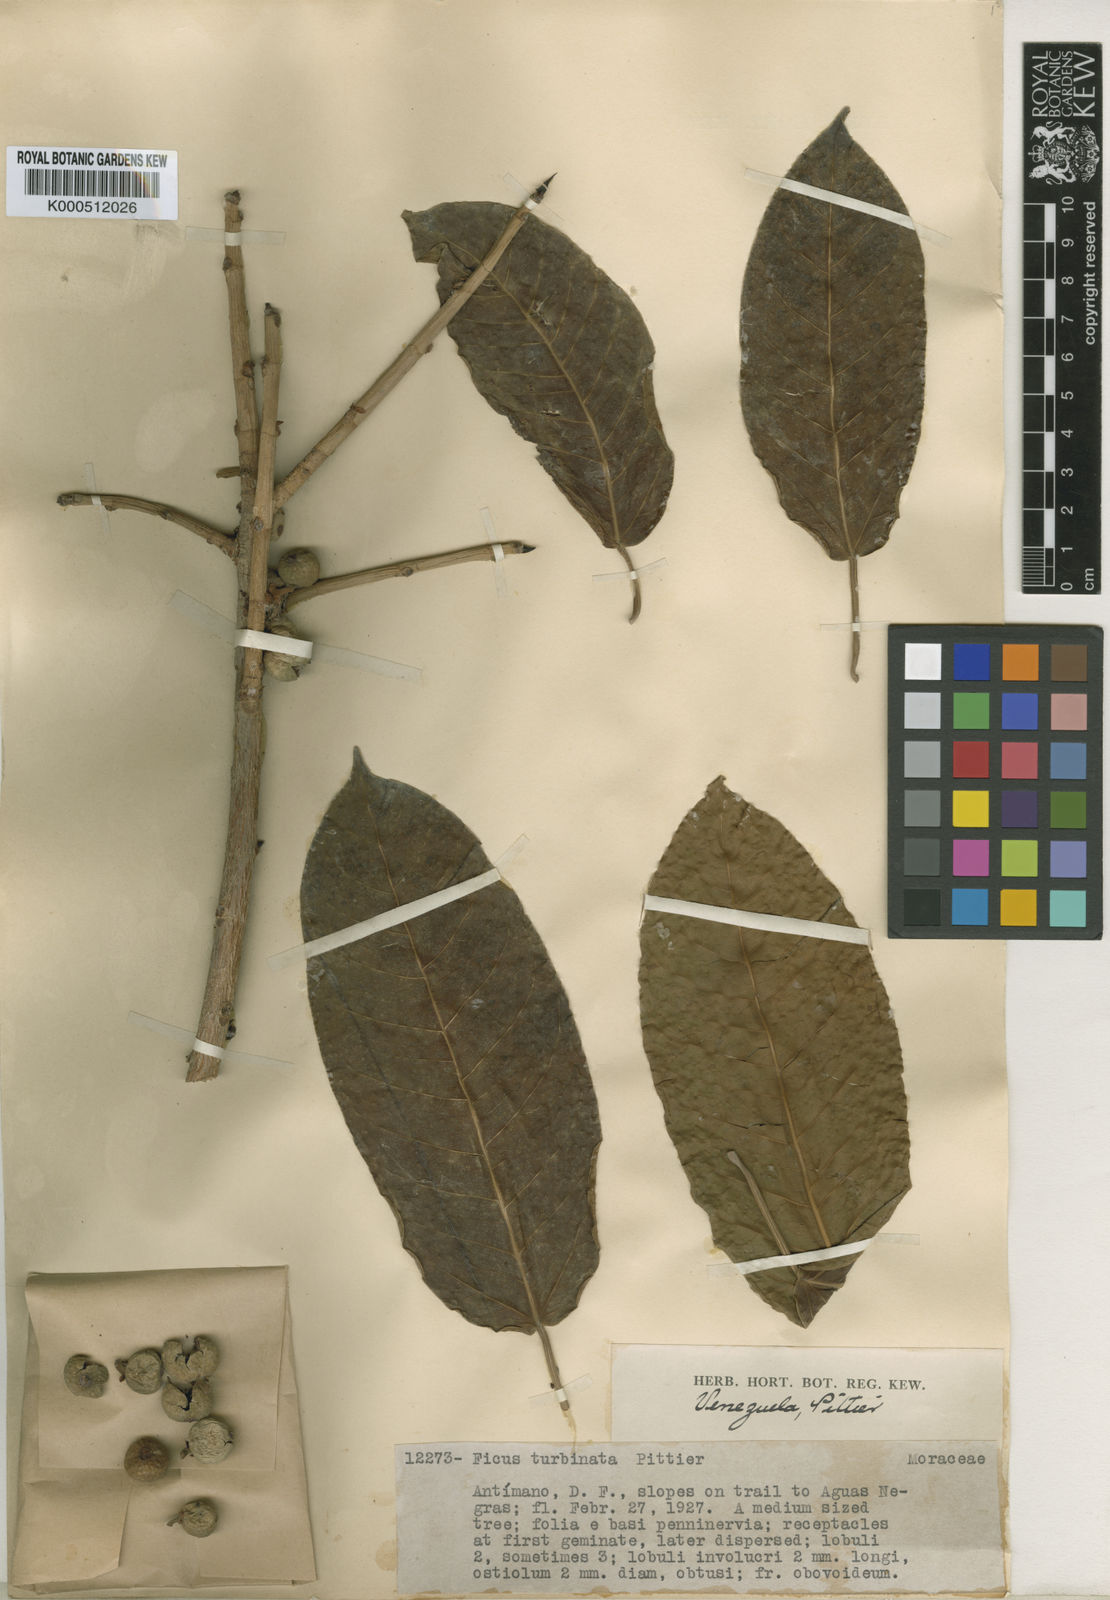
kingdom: Plantae
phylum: Tracheophyta
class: Magnoliopsida
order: Rosales
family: Moraceae
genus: Ficus
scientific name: Ficus citrifolia
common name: Strangler fig
